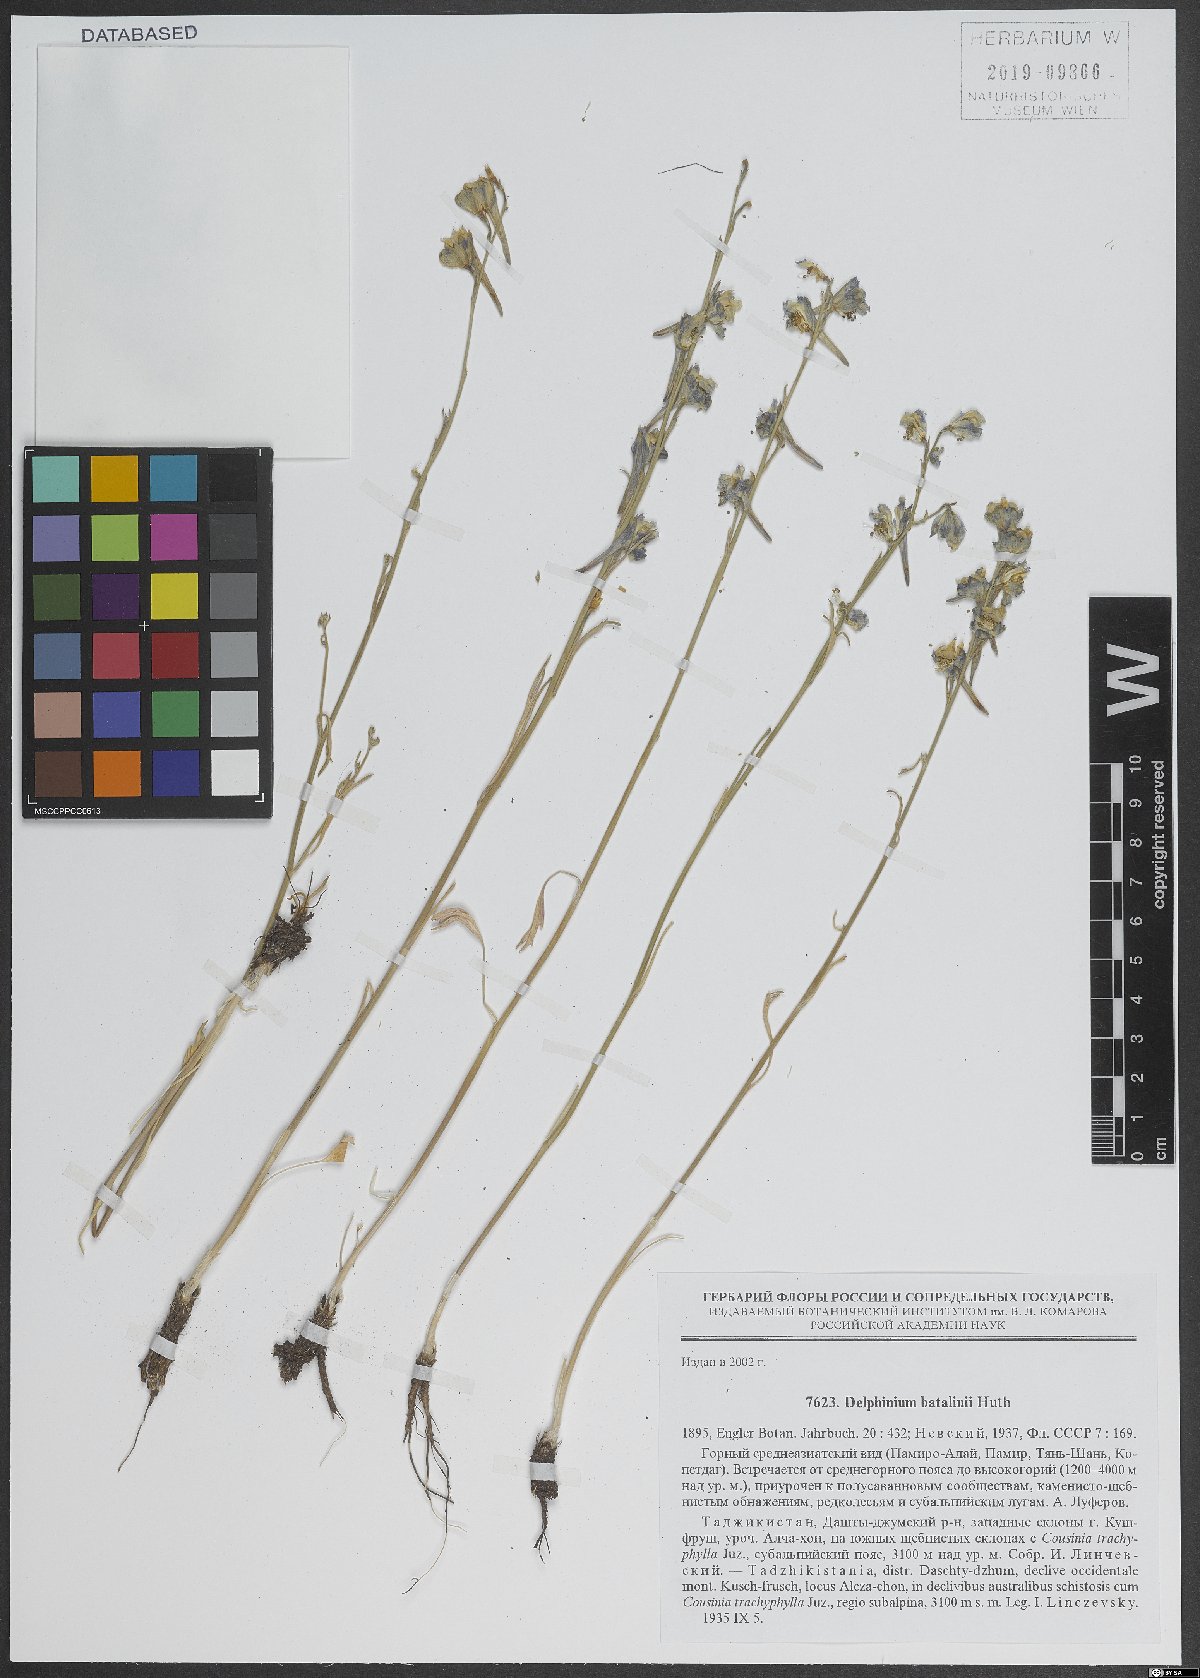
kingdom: Plantae
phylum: Tracheophyta
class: Magnoliopsida
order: Ranunculales
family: Ranunculaceae
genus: Delphinium
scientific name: Delphinium batalinii
